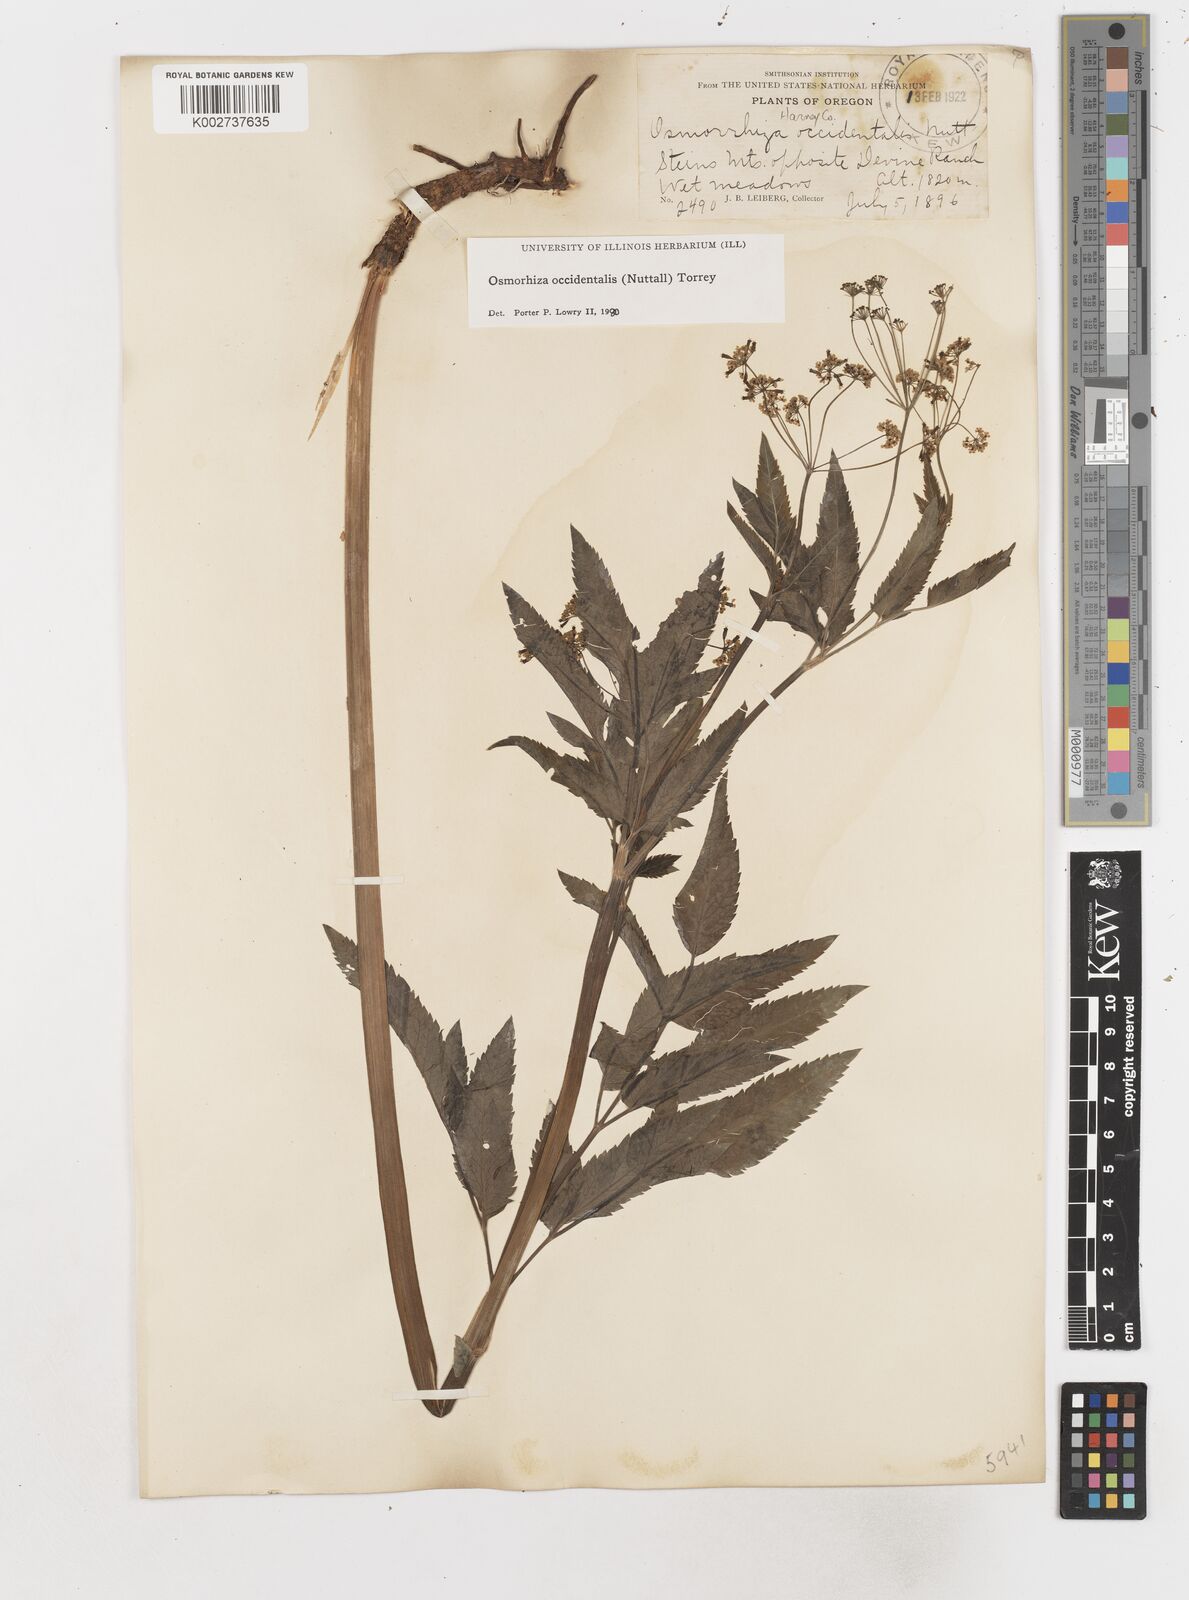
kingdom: Plantae
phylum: Tracheophyta
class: Magnoliopsida
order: Apiales
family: Apiaceae
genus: Osmorhiza
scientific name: Osmorhiza occidentalis
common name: Western sweet cicely
